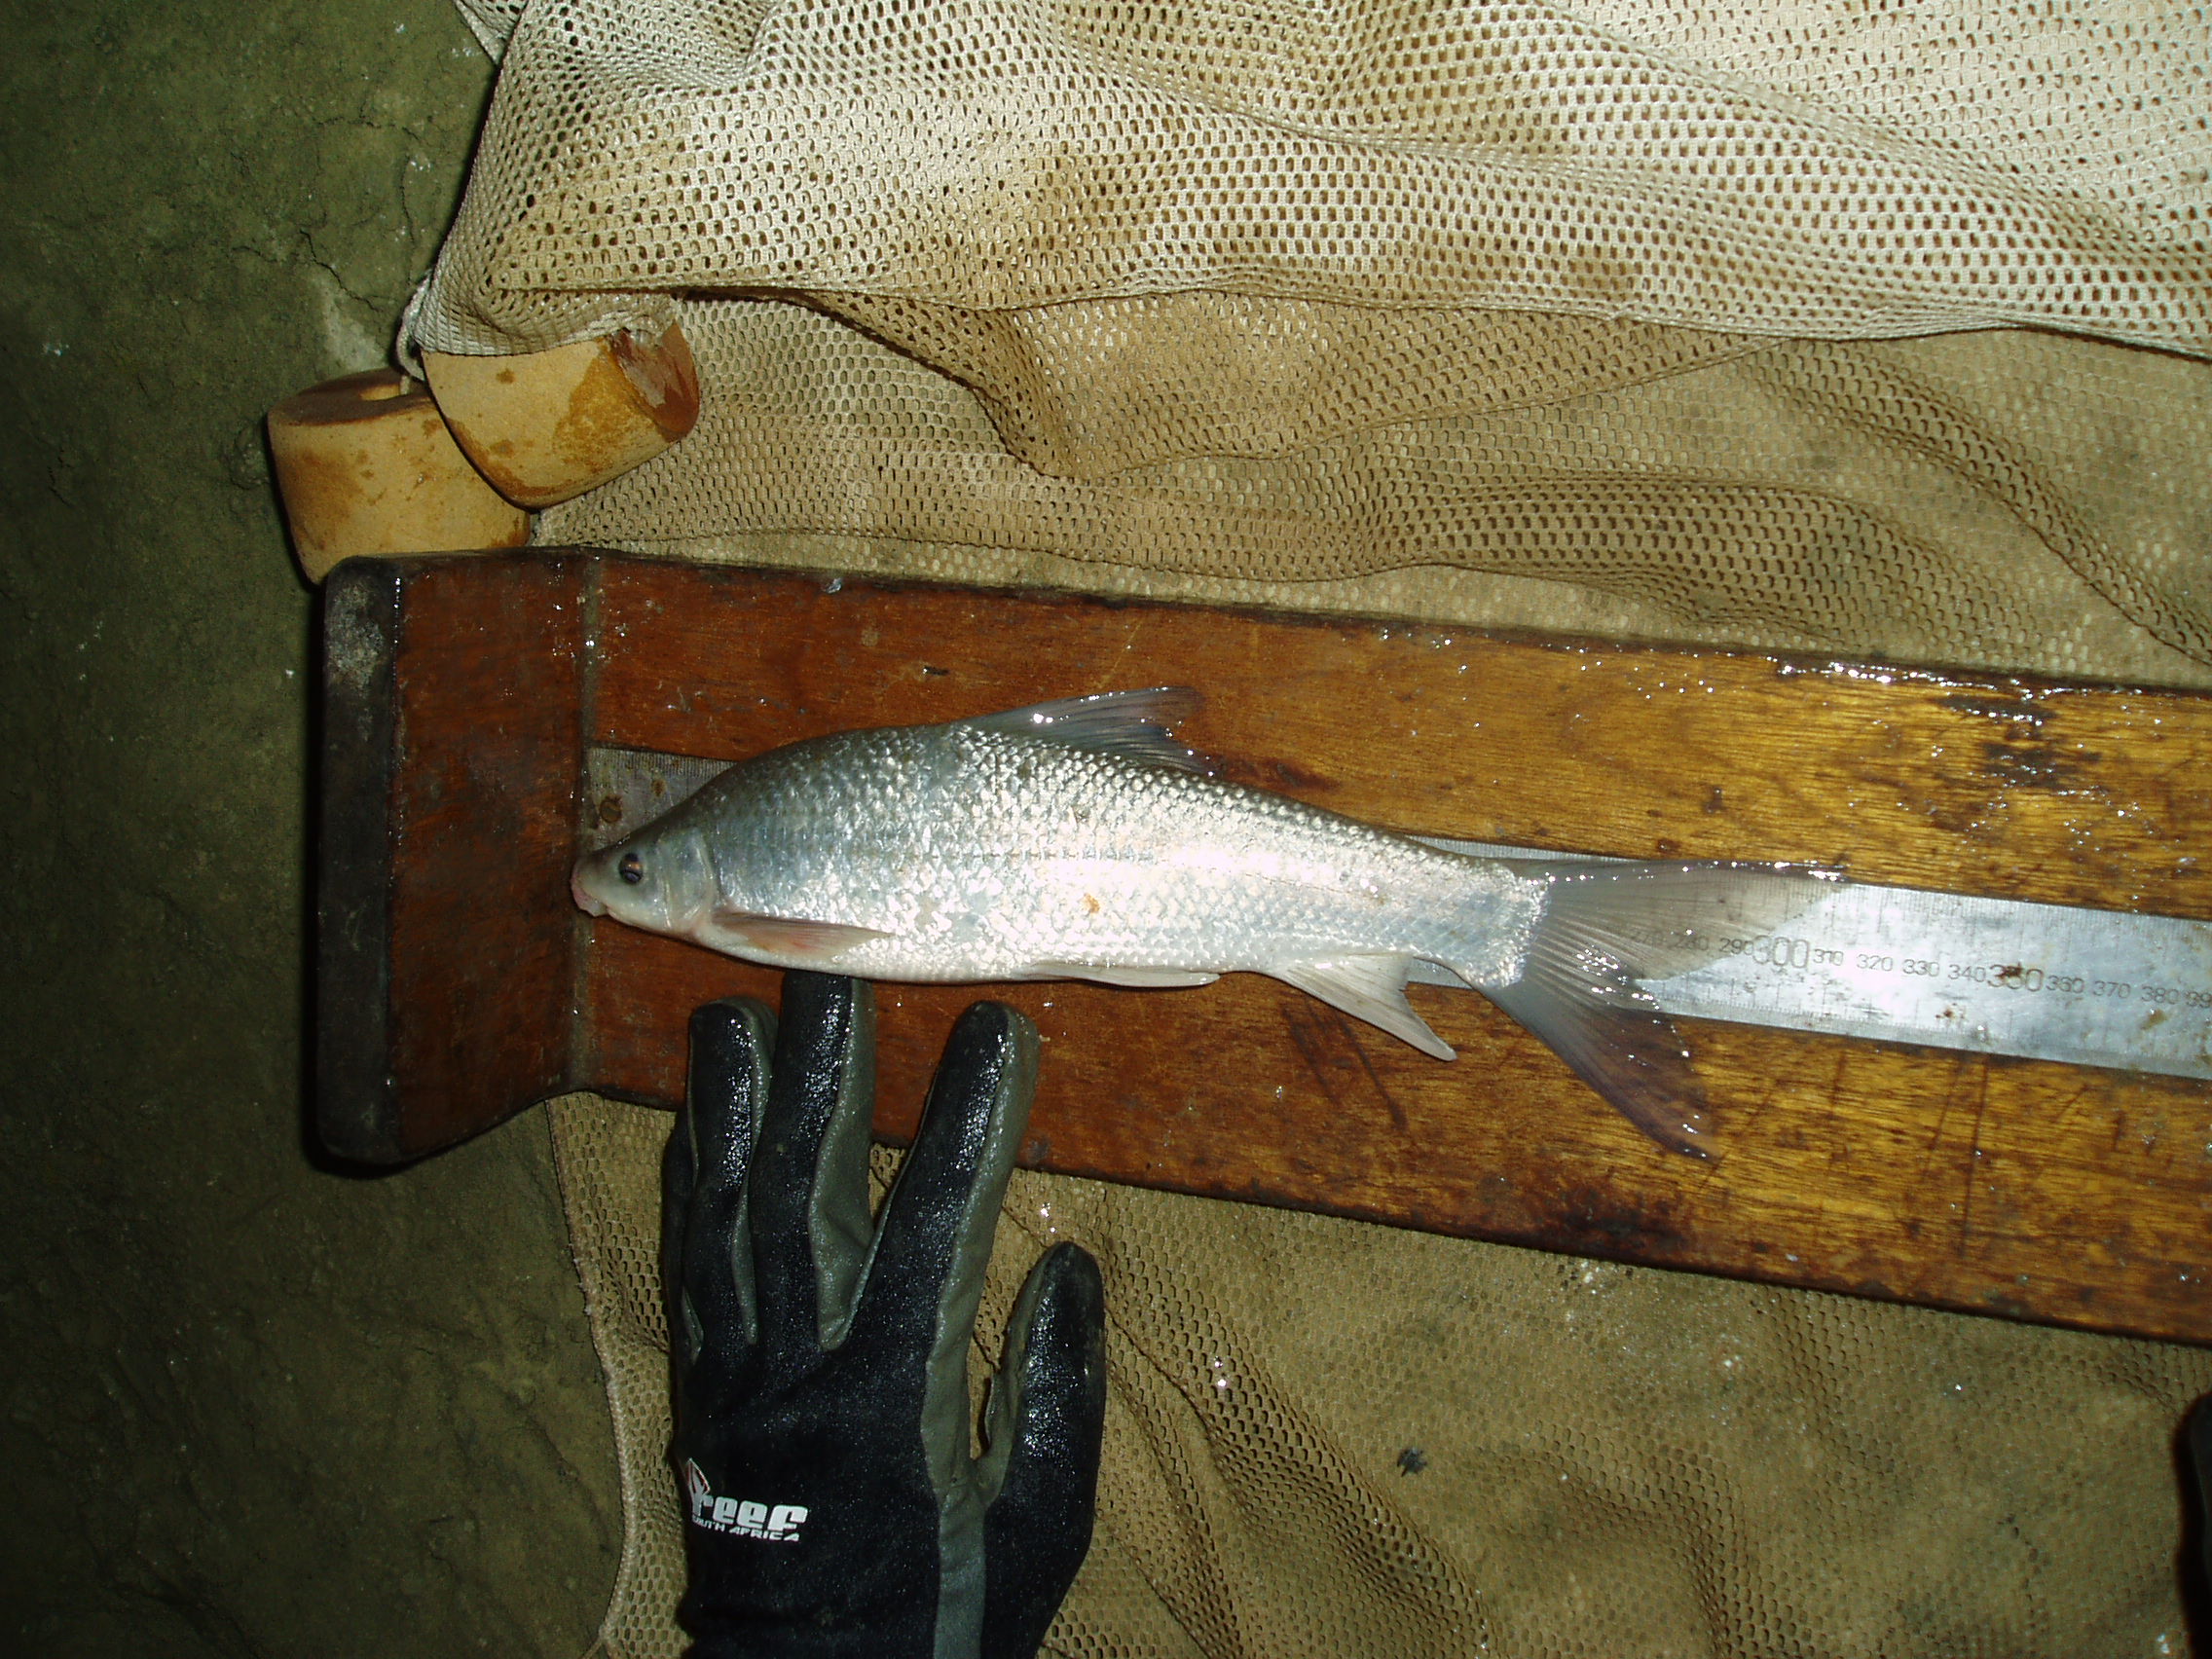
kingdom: Animalia
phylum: Chordata
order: Cypriniformes
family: Cyprinidae
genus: Labeo
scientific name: Labeo umbratus
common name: Moggel
